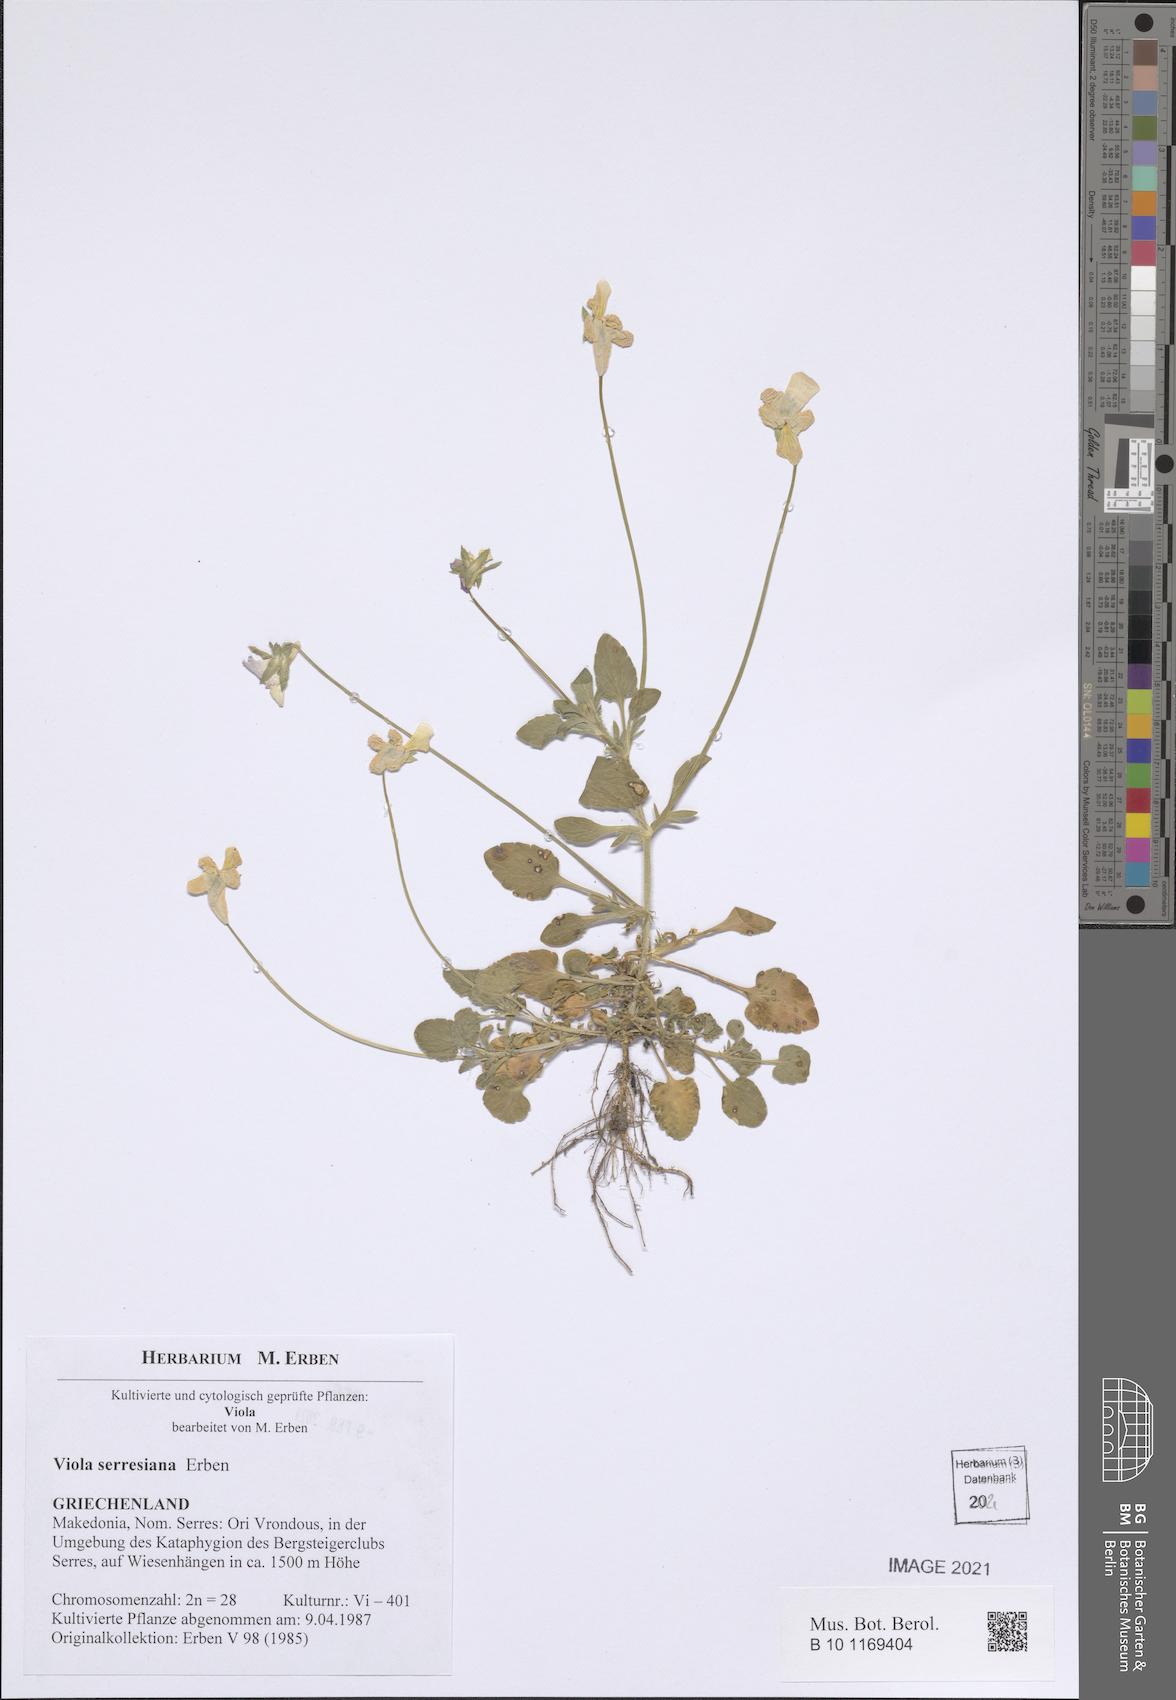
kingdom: Plantae
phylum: Tracheophyta
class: Magnoliopsida
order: Malpighiales
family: Violaceae
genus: Viola
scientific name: Viola serresiana
